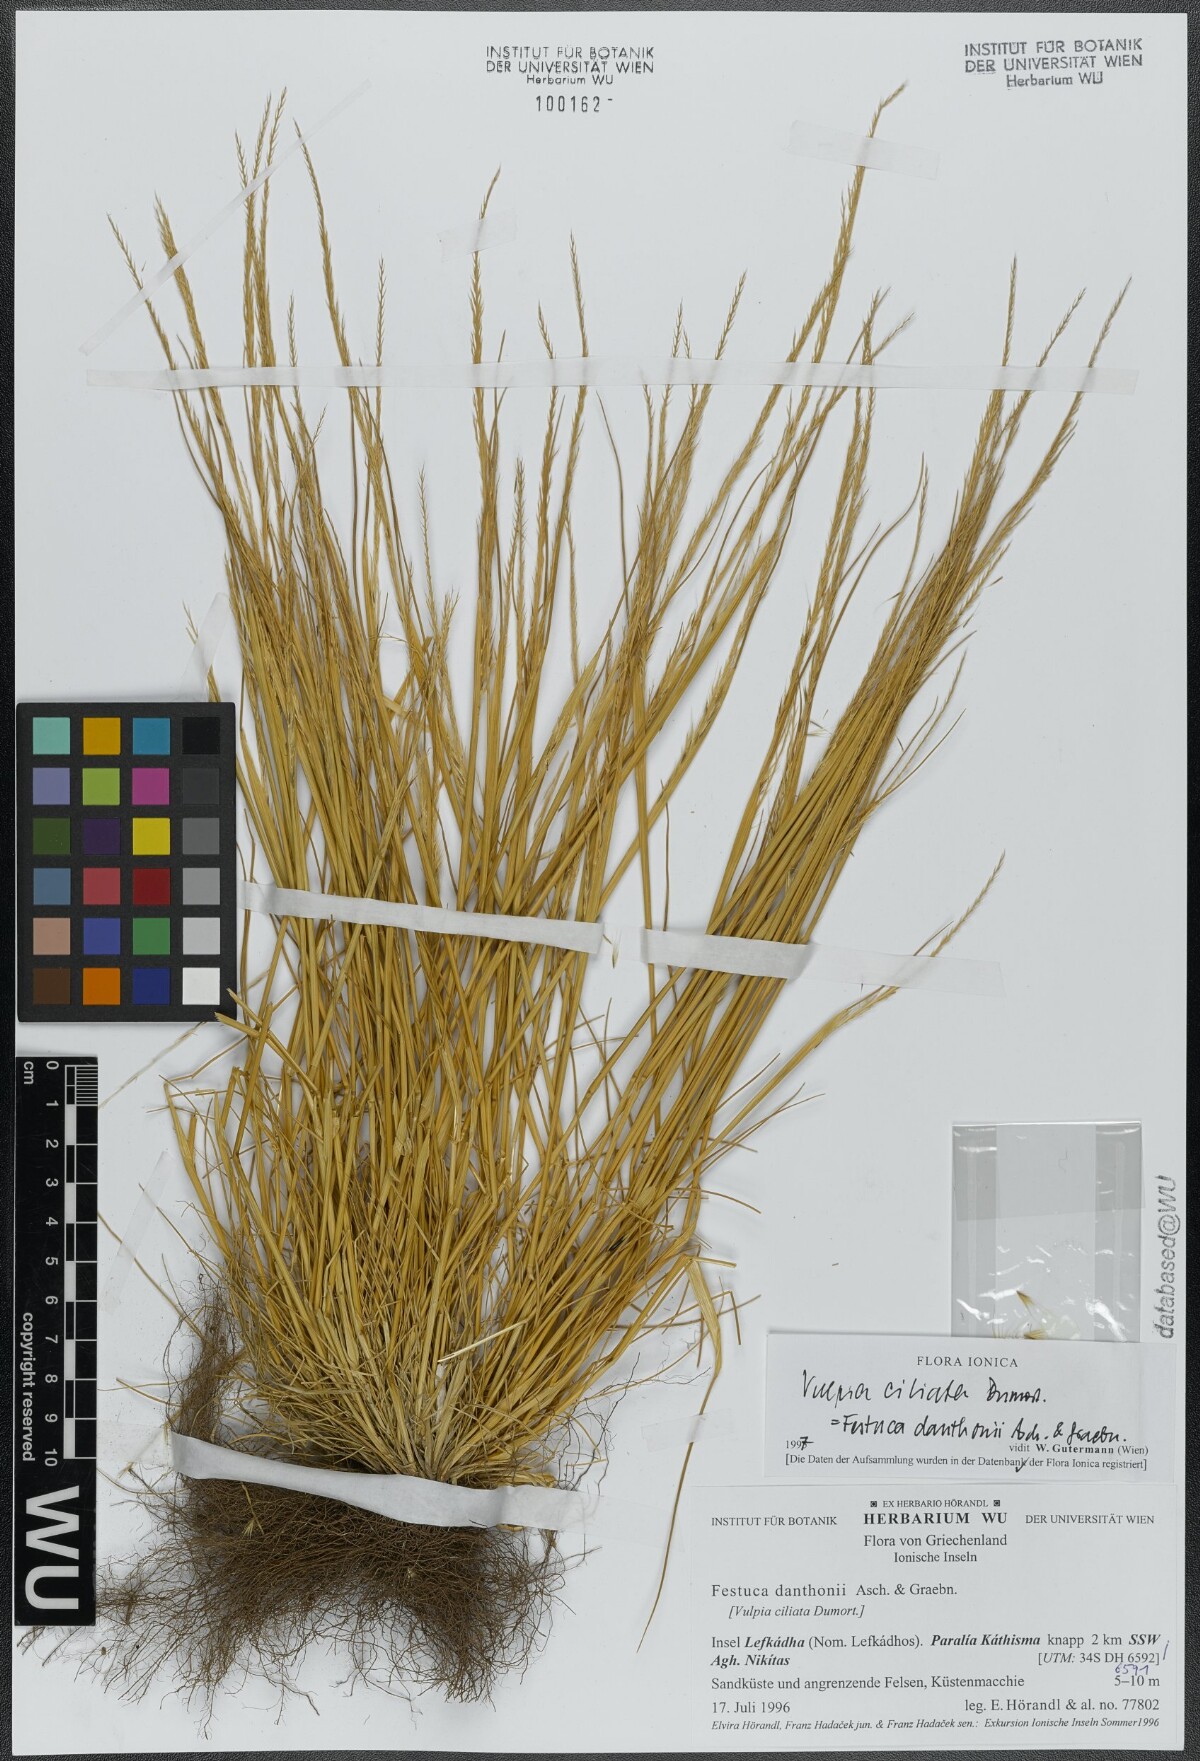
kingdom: Plantae
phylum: Tracheophyta
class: Liliopsida
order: Poales
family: Poaceae
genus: Festuca
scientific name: Festuca ambigua
